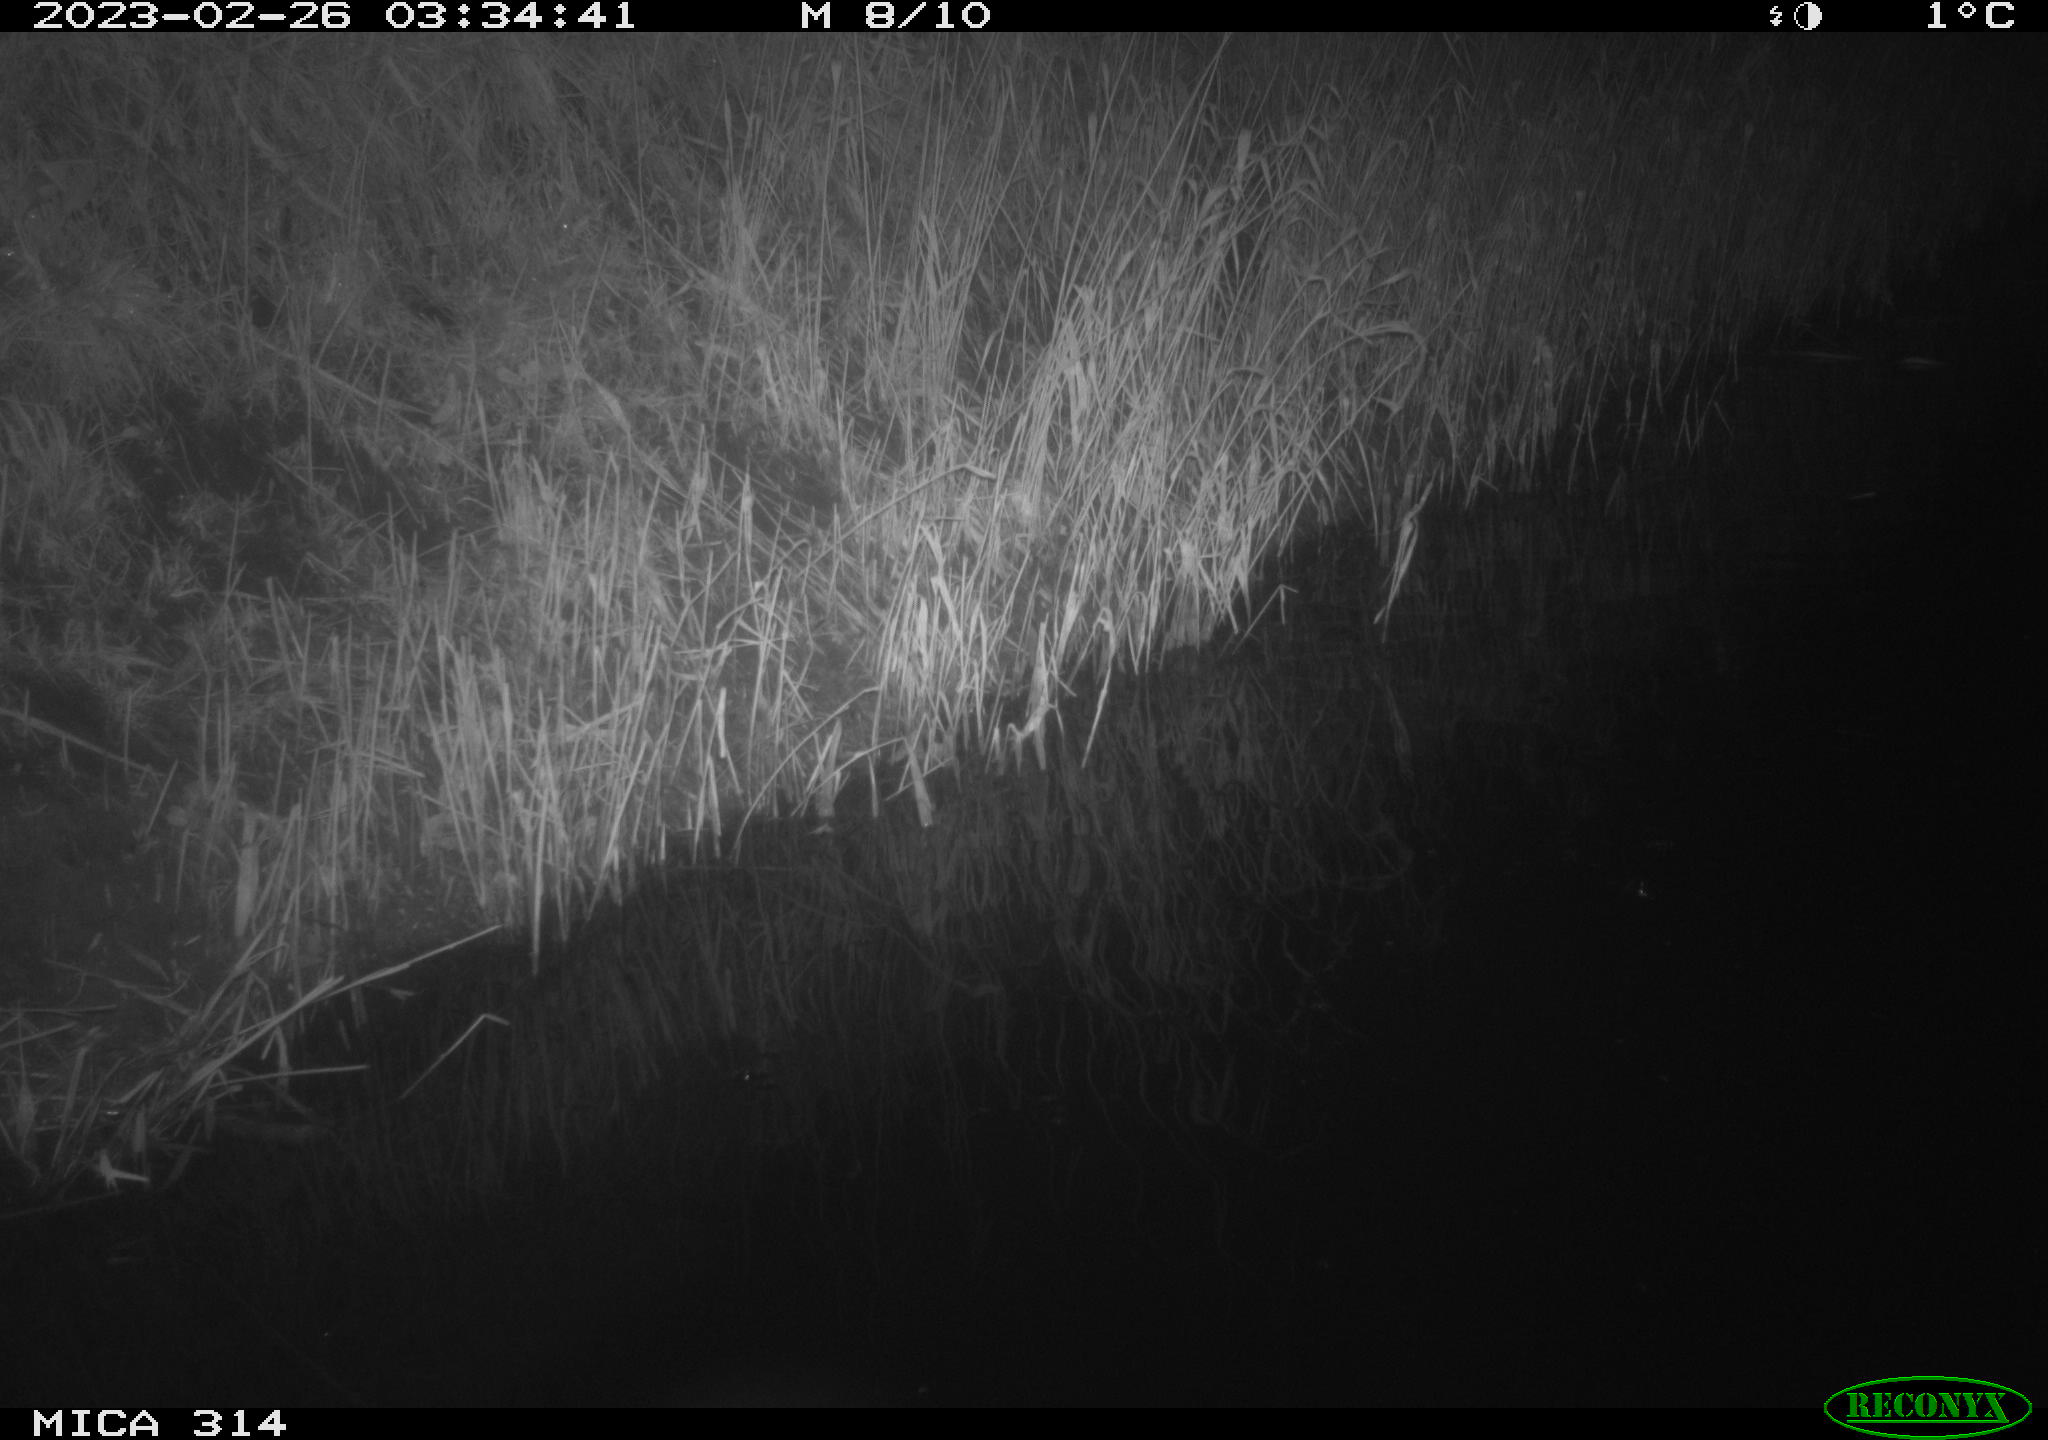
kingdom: Animalia
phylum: Chordata
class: Aves
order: Anseriformes
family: Anatidae
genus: Anas
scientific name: Anas
